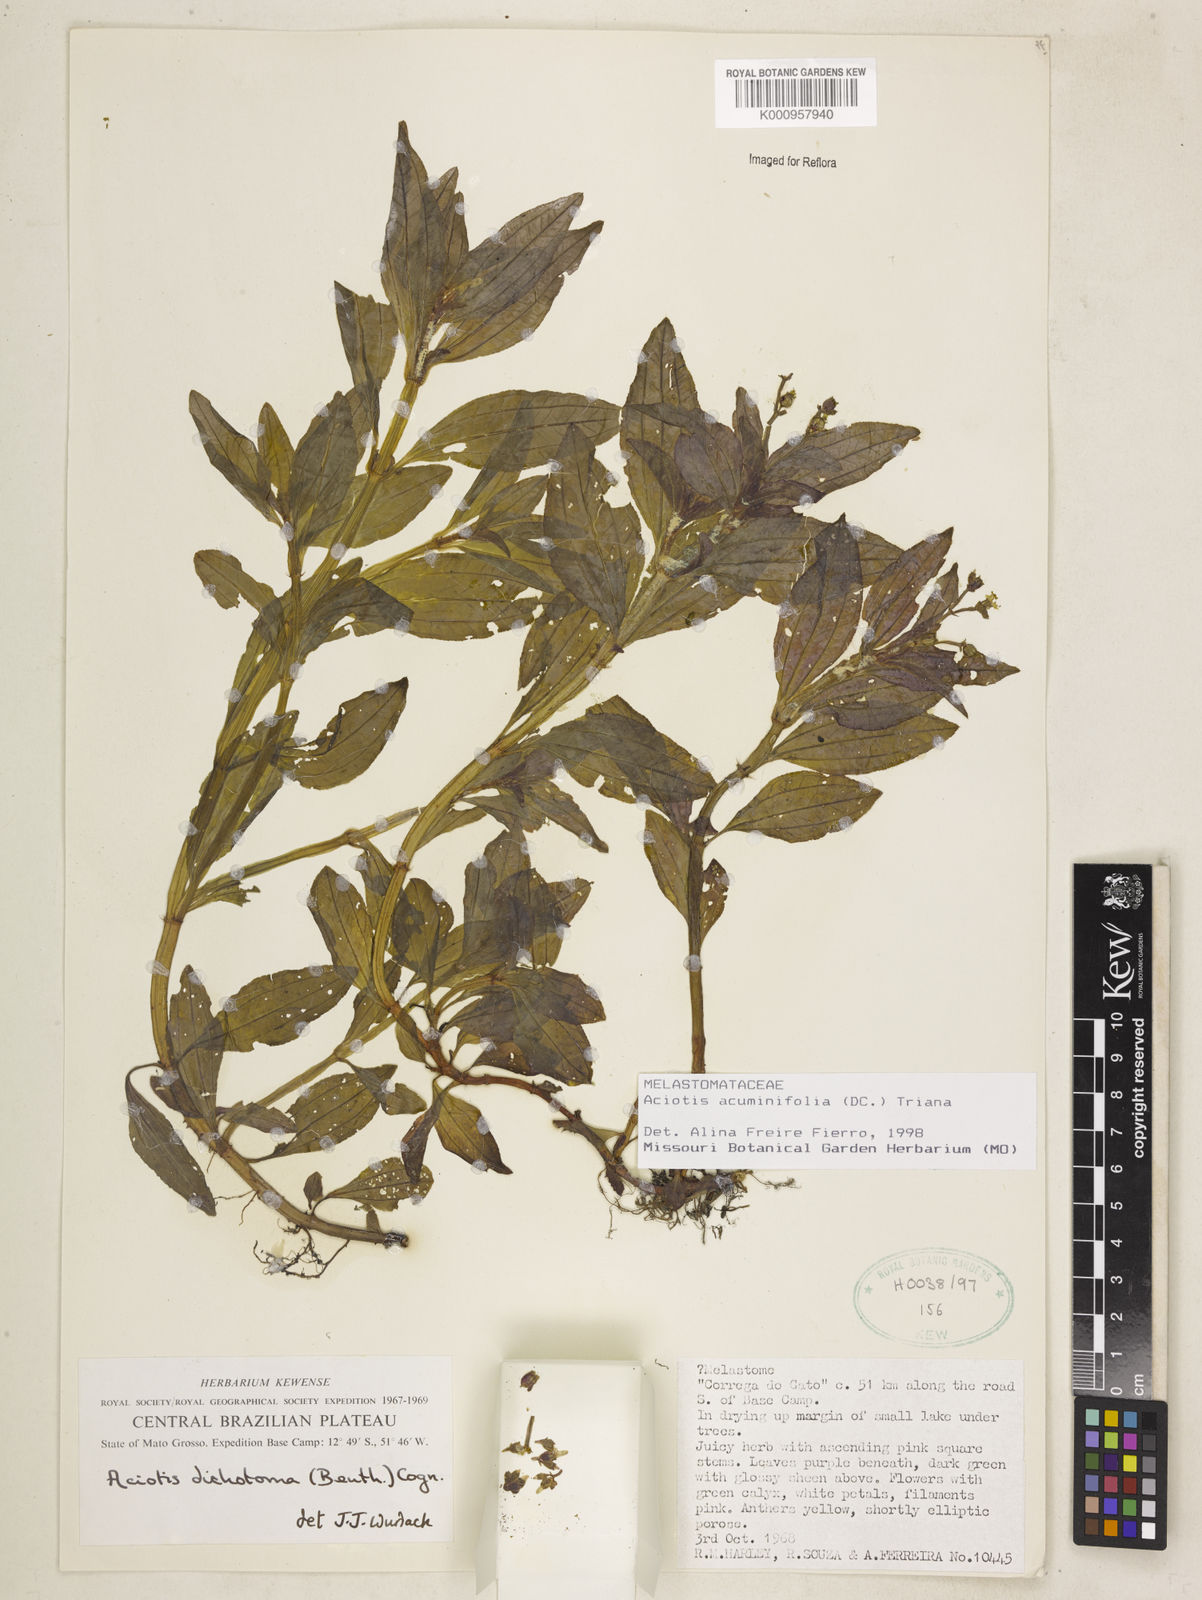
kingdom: Plantae
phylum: Tracheophyta
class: Magnoliopsida
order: Myrtales
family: Melastomataceae
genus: Aciotis
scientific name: Aciotis acuminifolia
